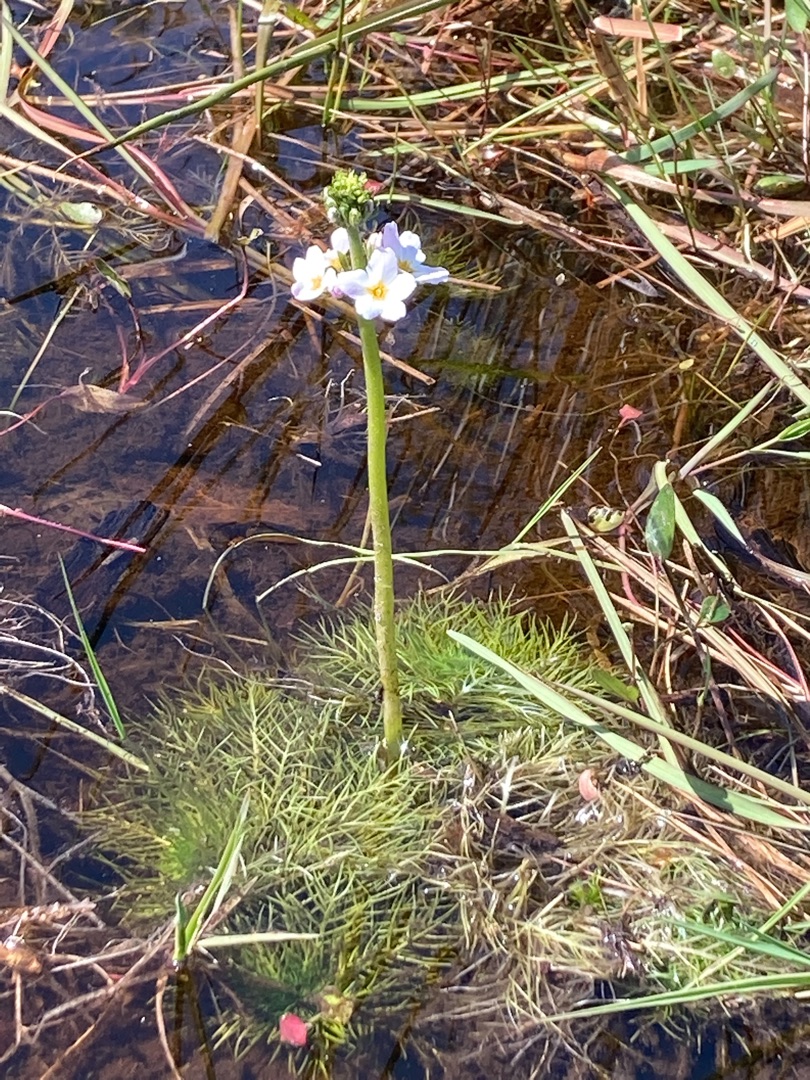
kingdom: Plantae
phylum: Tracheophyta
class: Magnoliopsida
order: Ericales
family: Primulaceae
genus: Hottonia
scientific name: Hottonia palustris
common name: Vandrøllike
